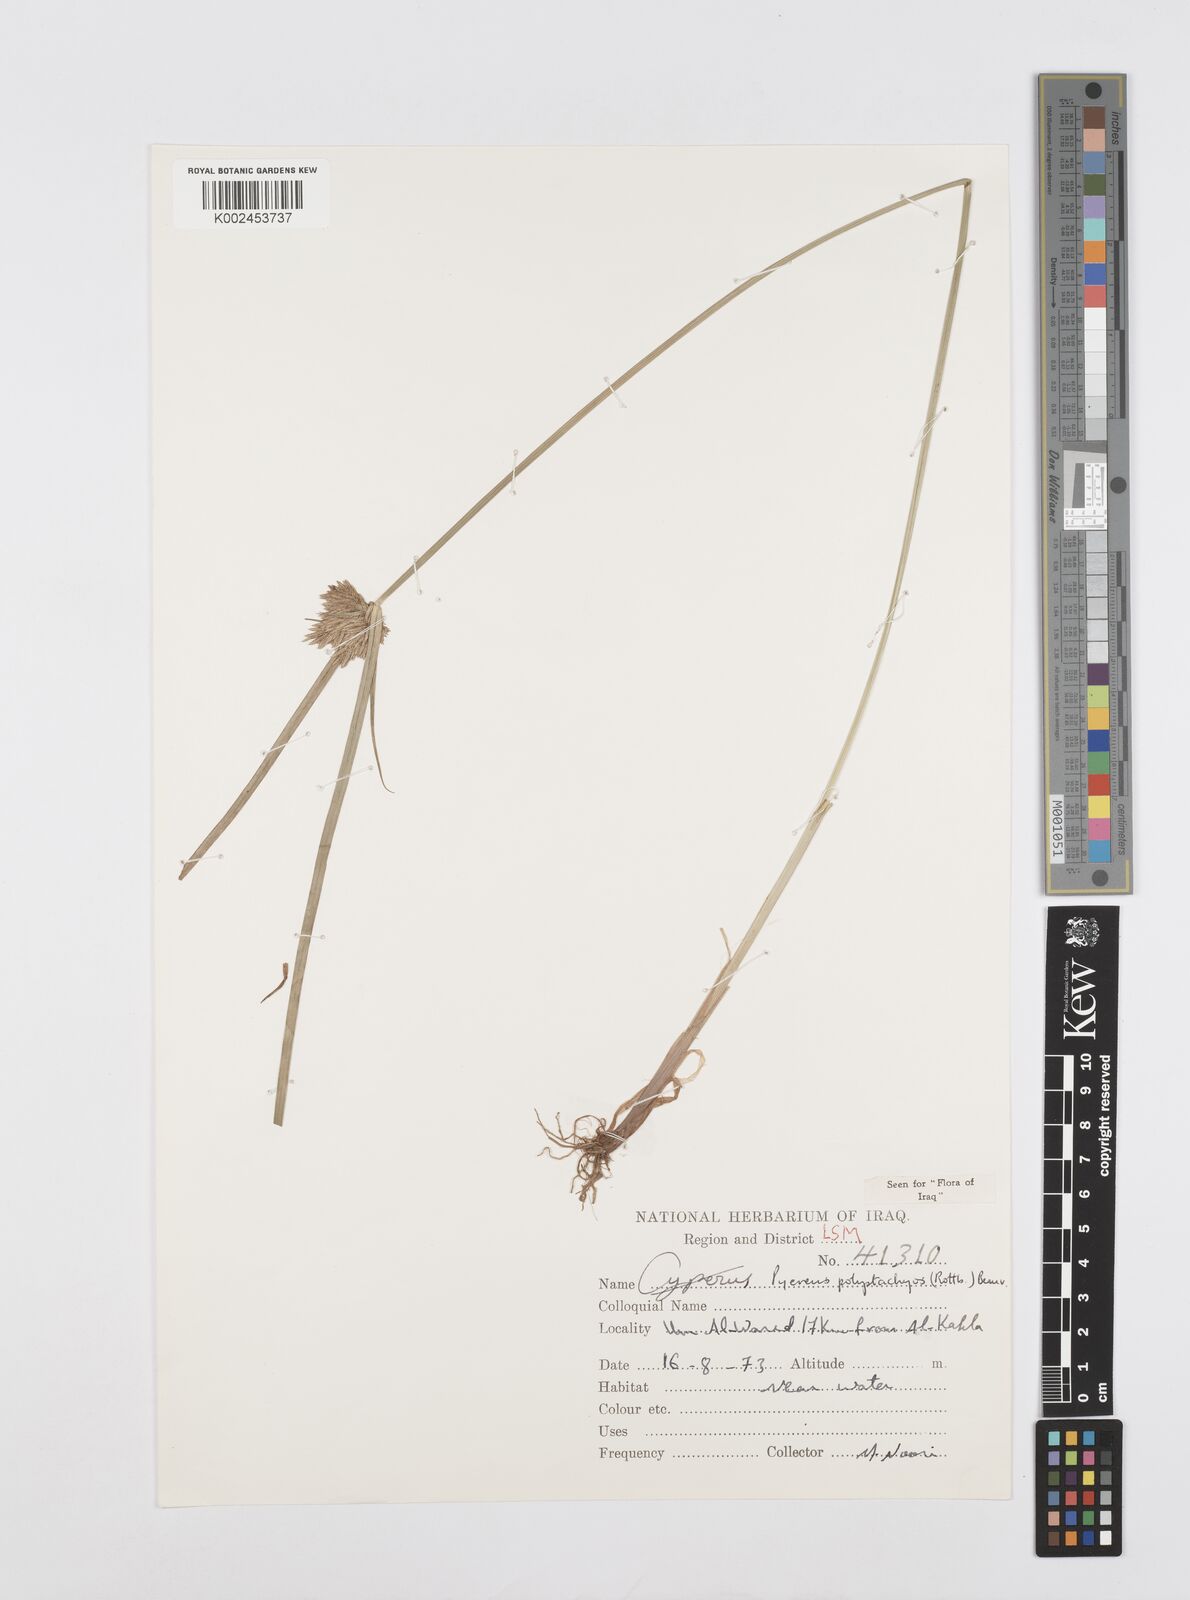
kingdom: Plantae
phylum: Tracheophyta
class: Liliopsida
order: Poales
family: Cyperaceae
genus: Cyperus
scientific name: Cyperus polystachyos
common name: Bunchy flat sedge
